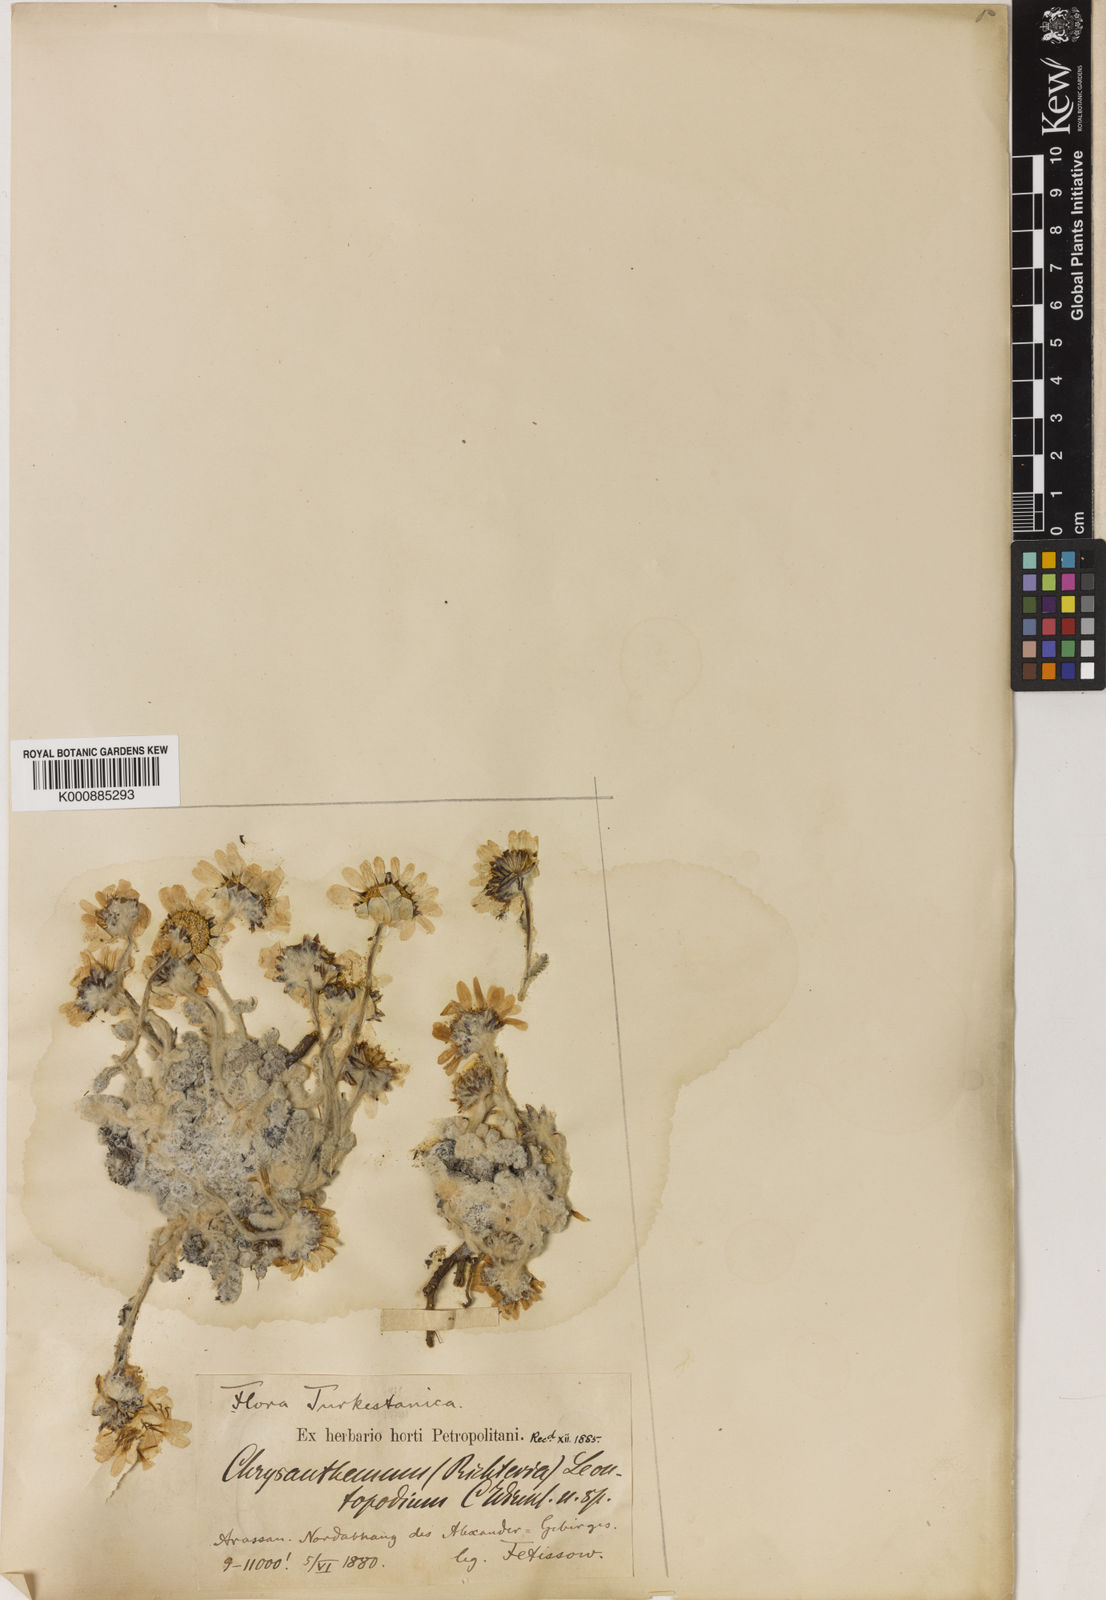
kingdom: Plantae
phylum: Tracheophyta
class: Magnoliopsida
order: Asterales
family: Asteraceae
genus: Richteria
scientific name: Richteria leontopodium
